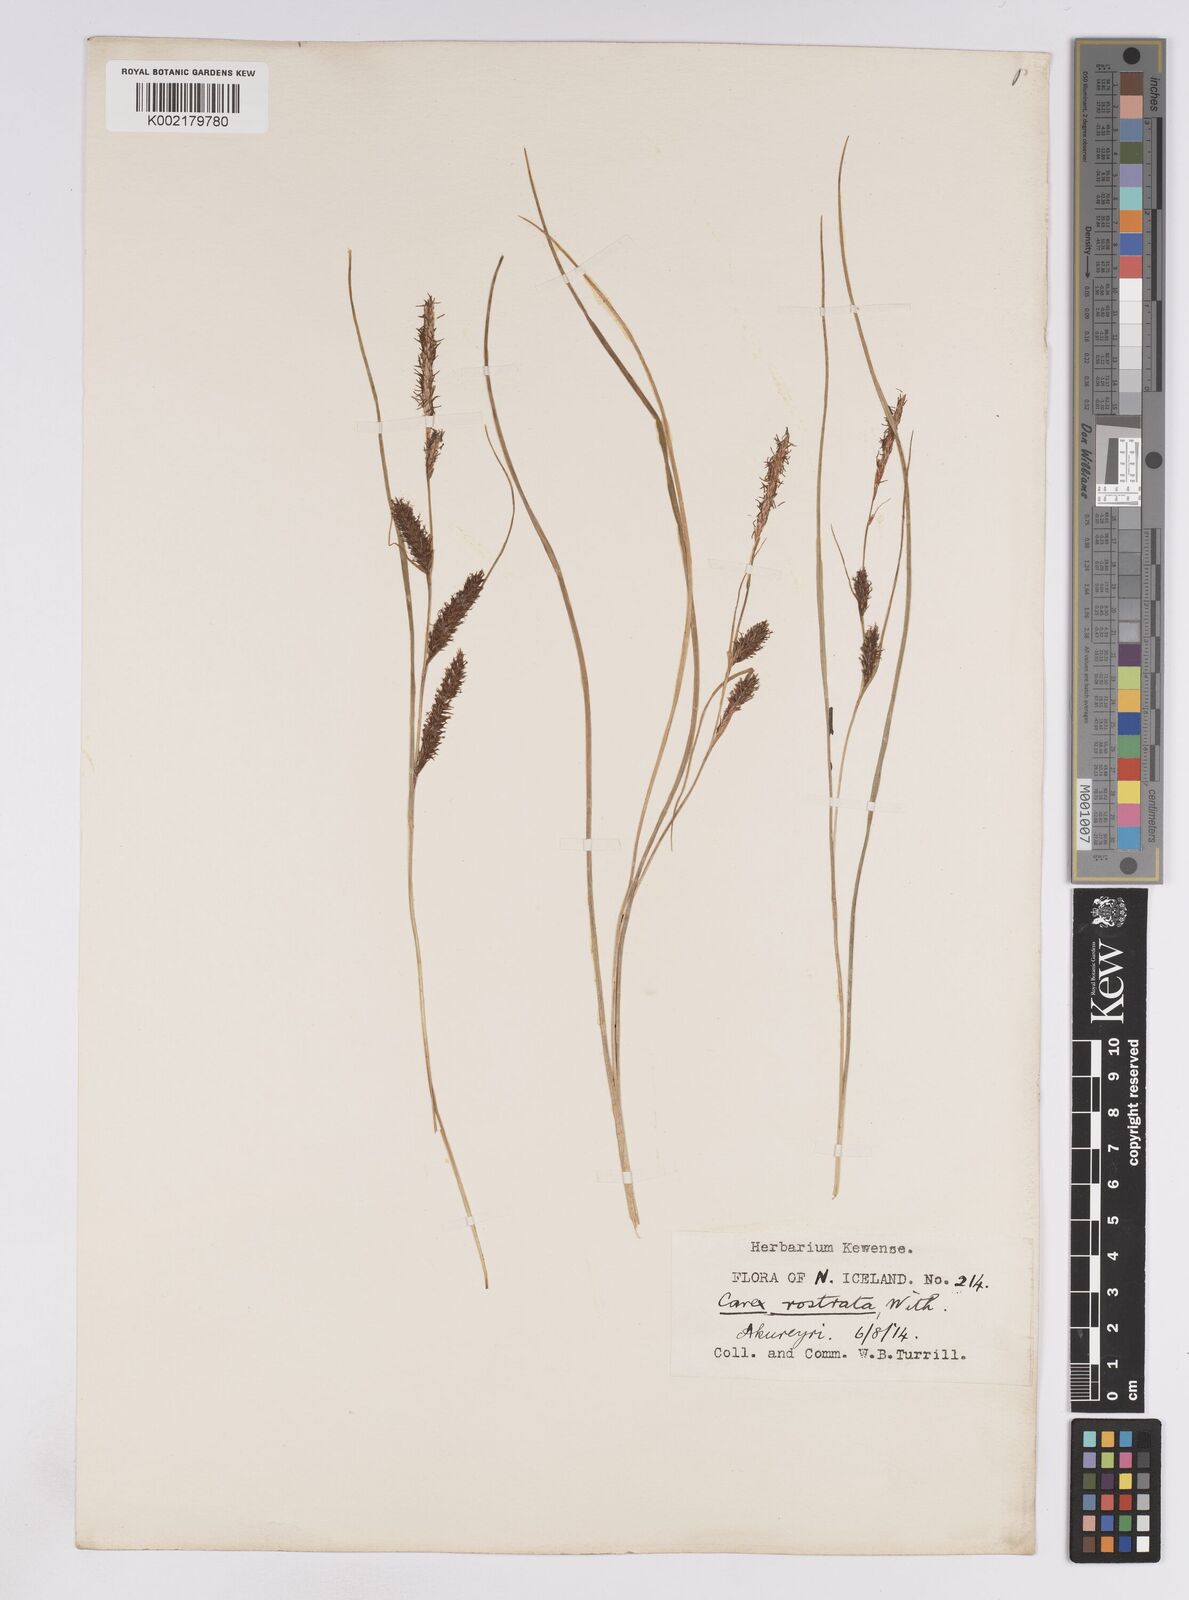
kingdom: Plantae
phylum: Tracheophyta
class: Liliopsida
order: Poales
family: Cyperaceae
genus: Carex
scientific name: Carex rostrata
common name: Bottle sedge
